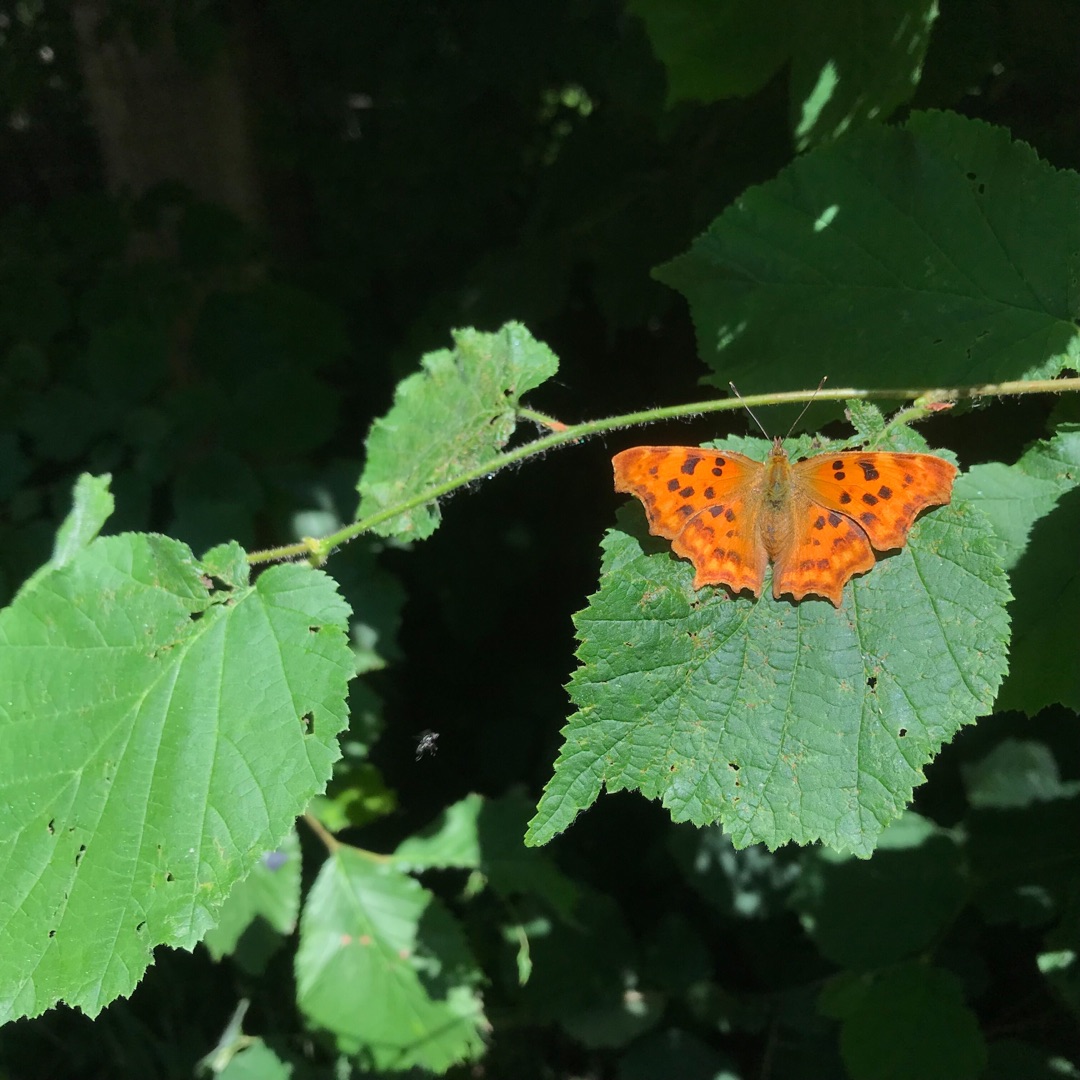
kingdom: Animalia
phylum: Arthropoda
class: Insecta
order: Lepidoptera
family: Nymphalidae
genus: Polygonia
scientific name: Polygonia c-album
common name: Det hvide C
